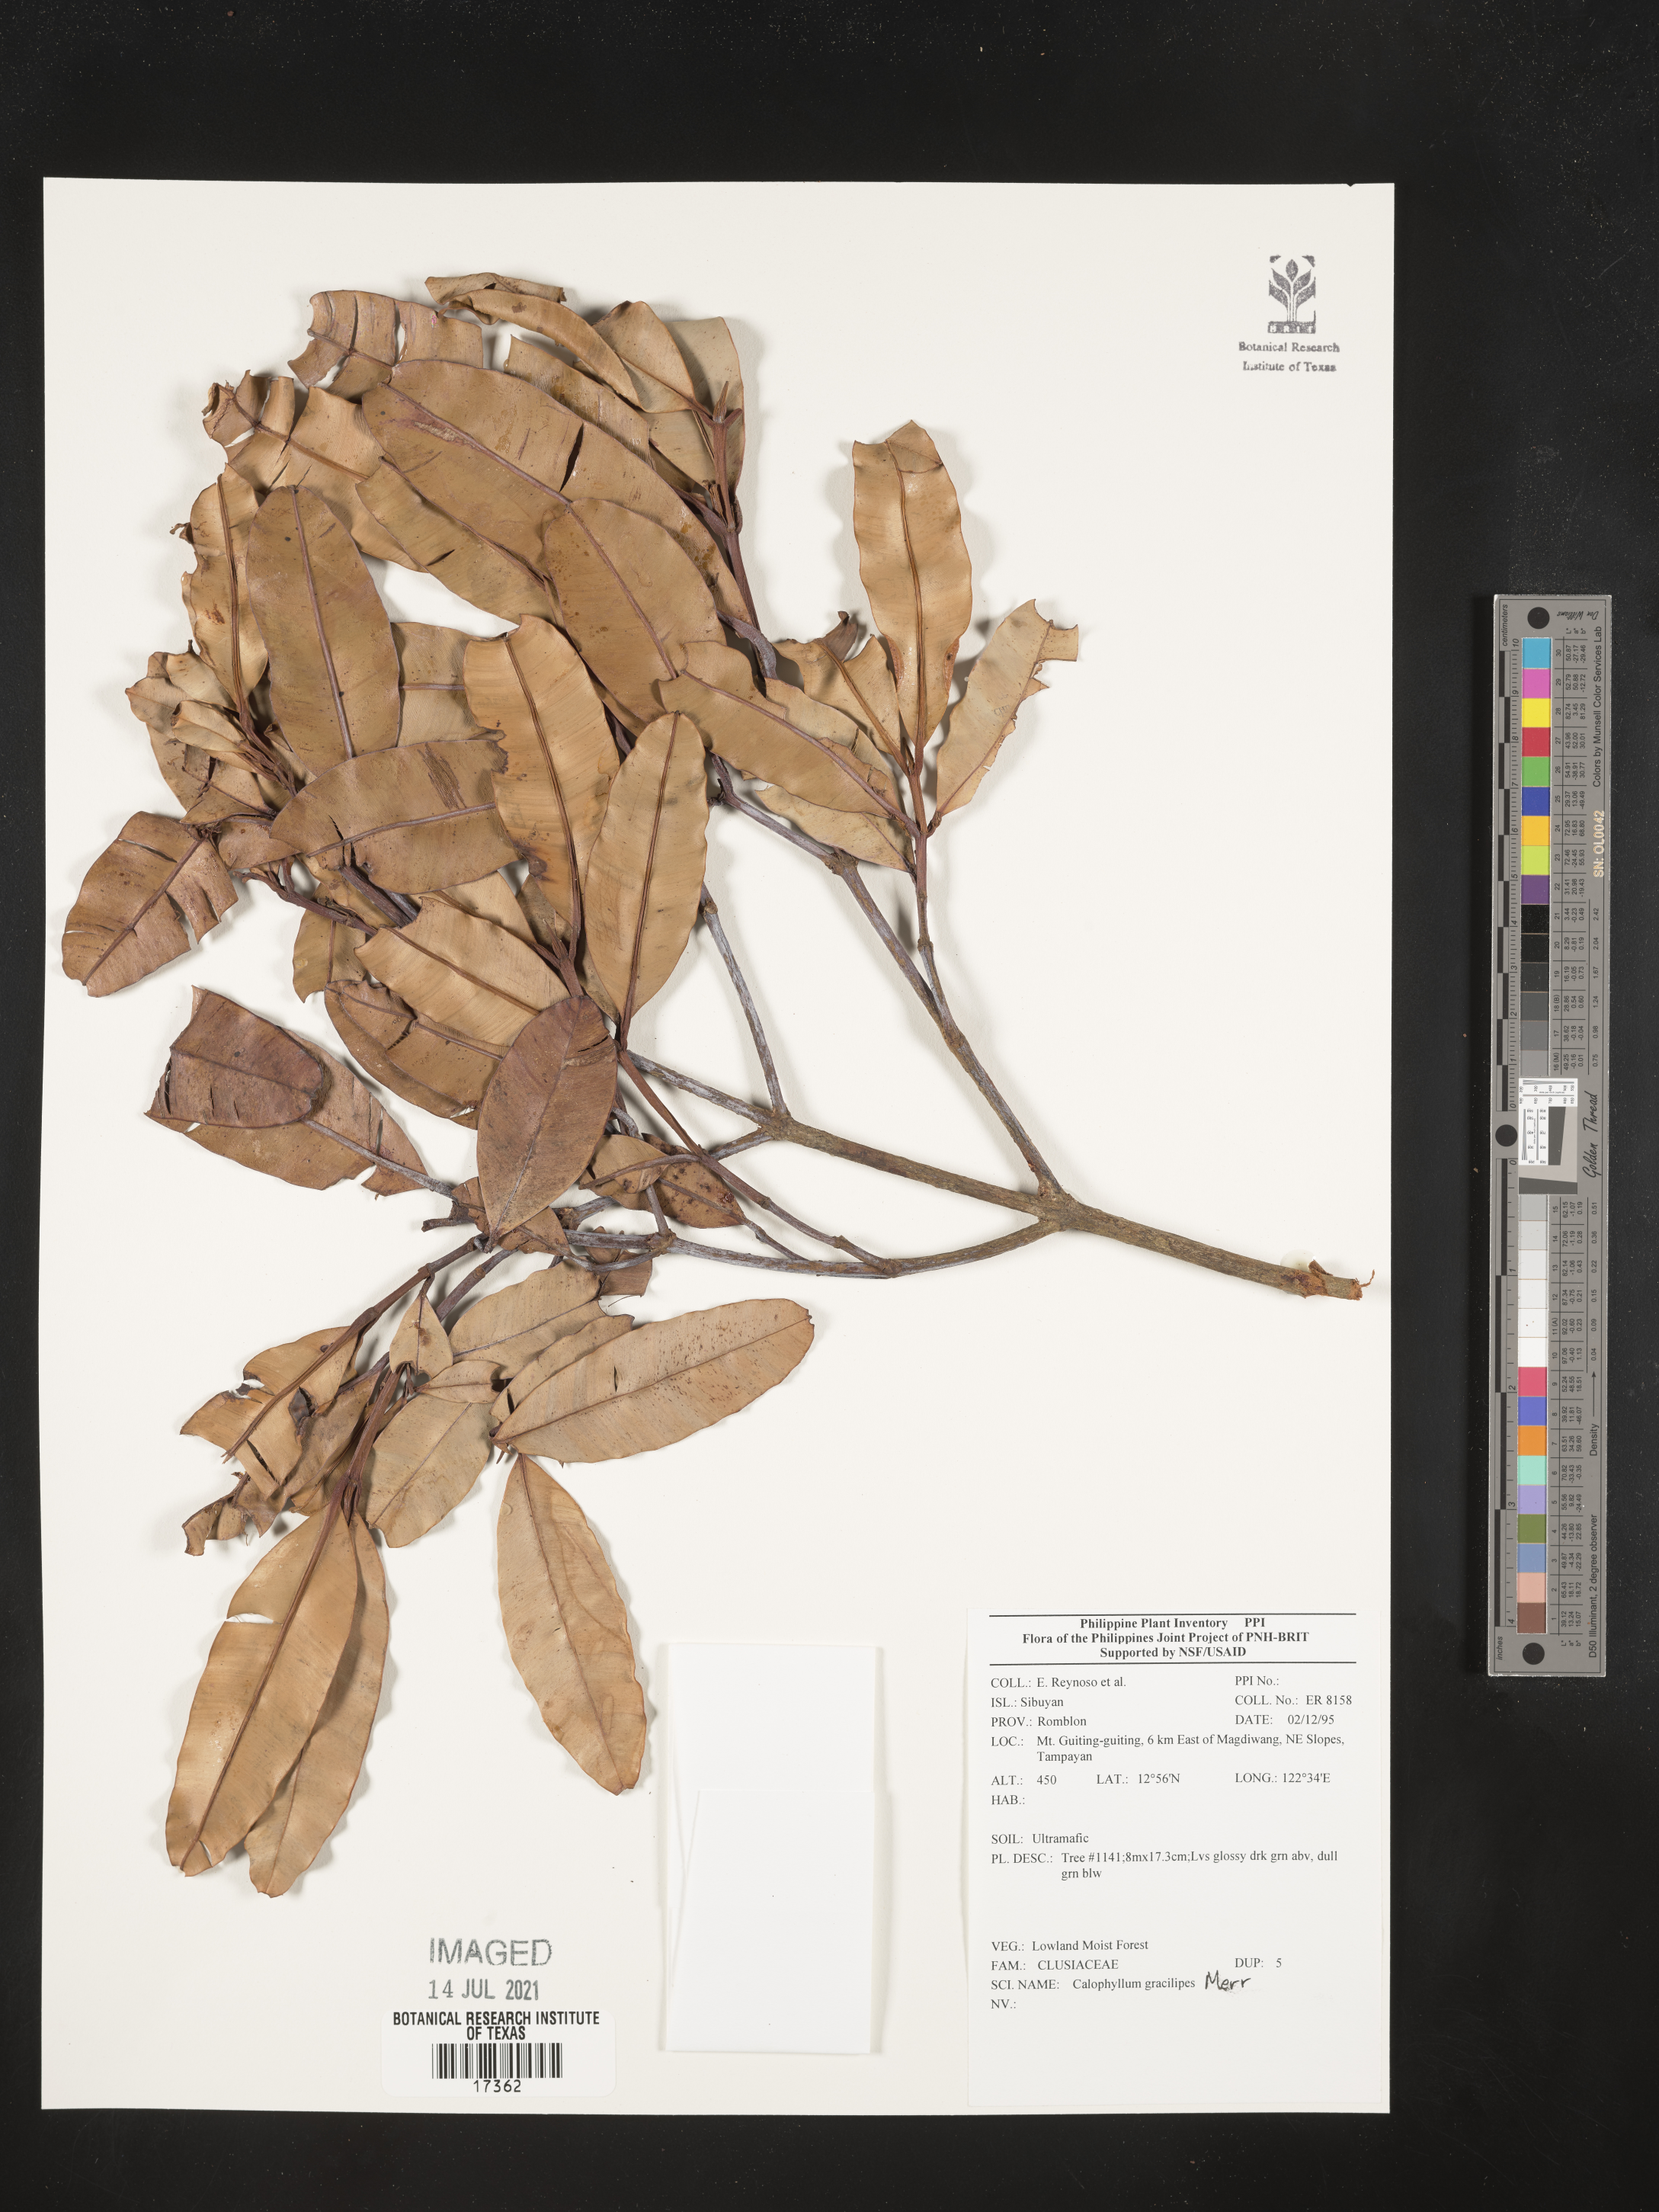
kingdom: Plantae
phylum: Tracheophyta
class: Magnoliopsida
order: Malpighiales
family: Calophyllaceae
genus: Calophyllum
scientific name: Calophyllum gracilipes
